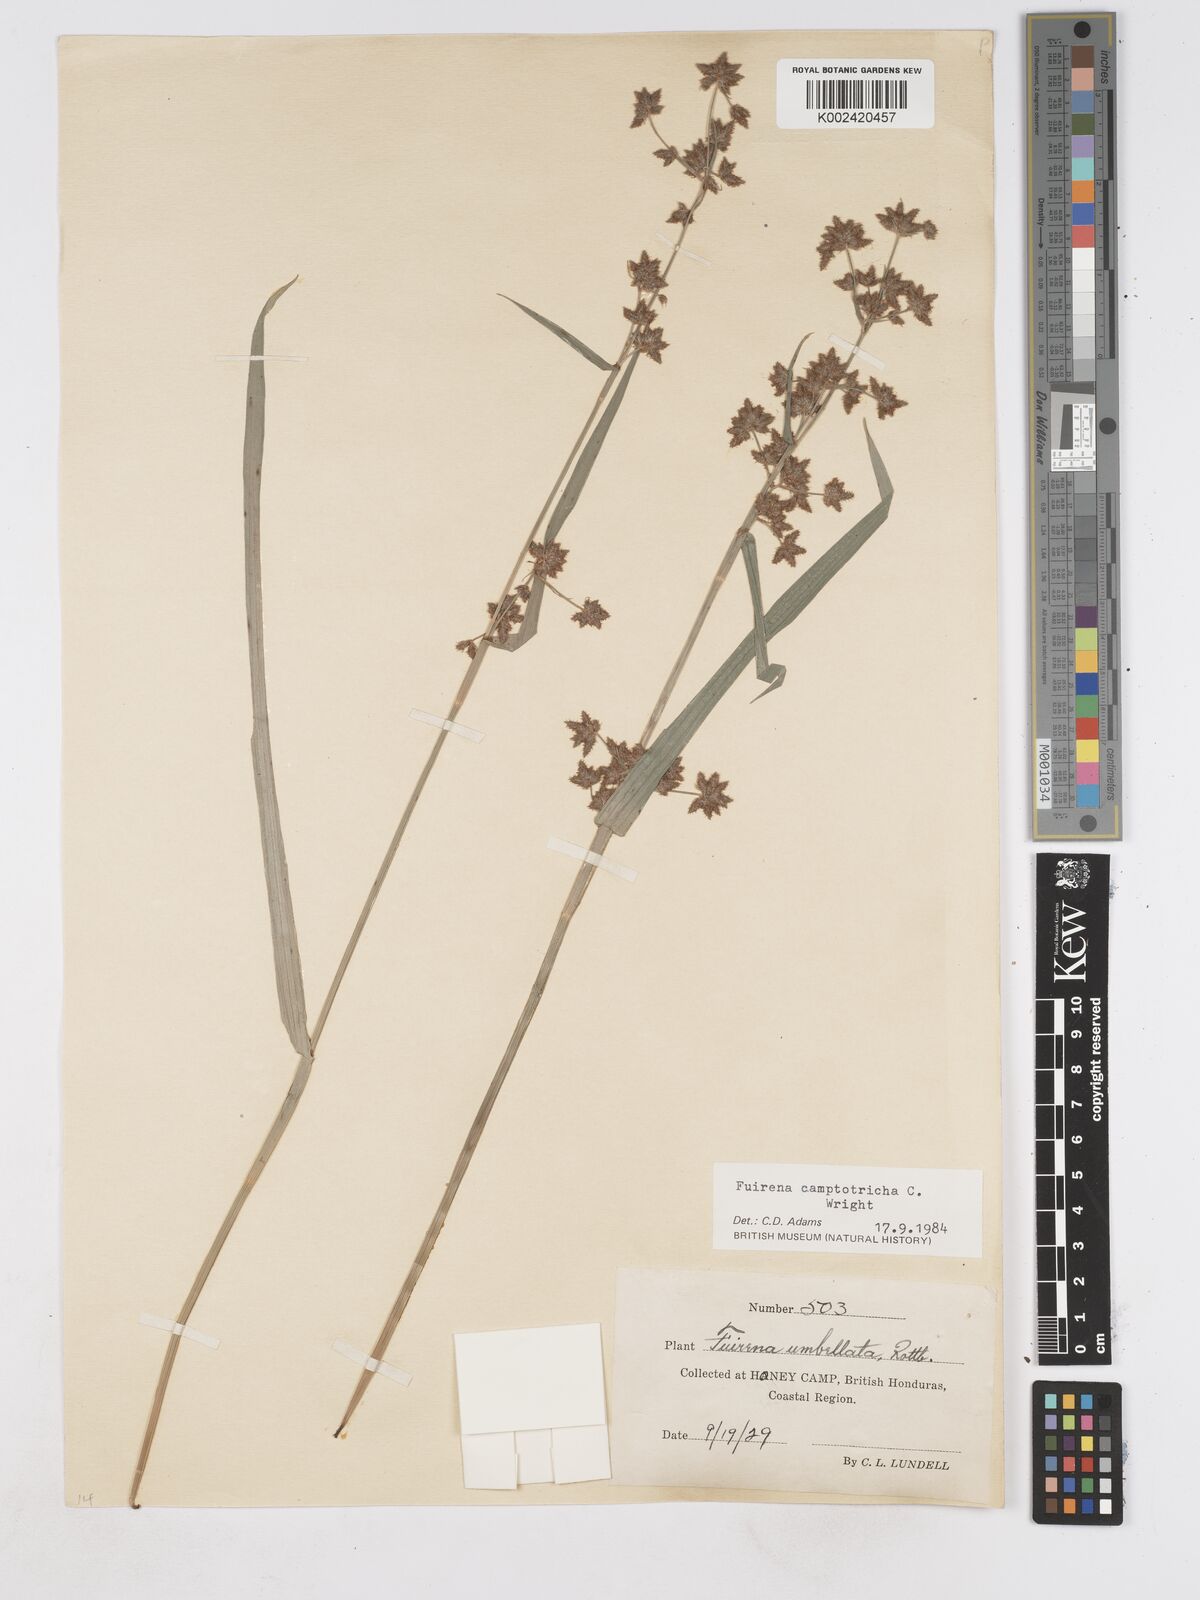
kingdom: Plantae
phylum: Tracheophyta
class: Liliopsida
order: Poales
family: Cyperaceae
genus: Fuirena
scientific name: Fuirena camptotricha
